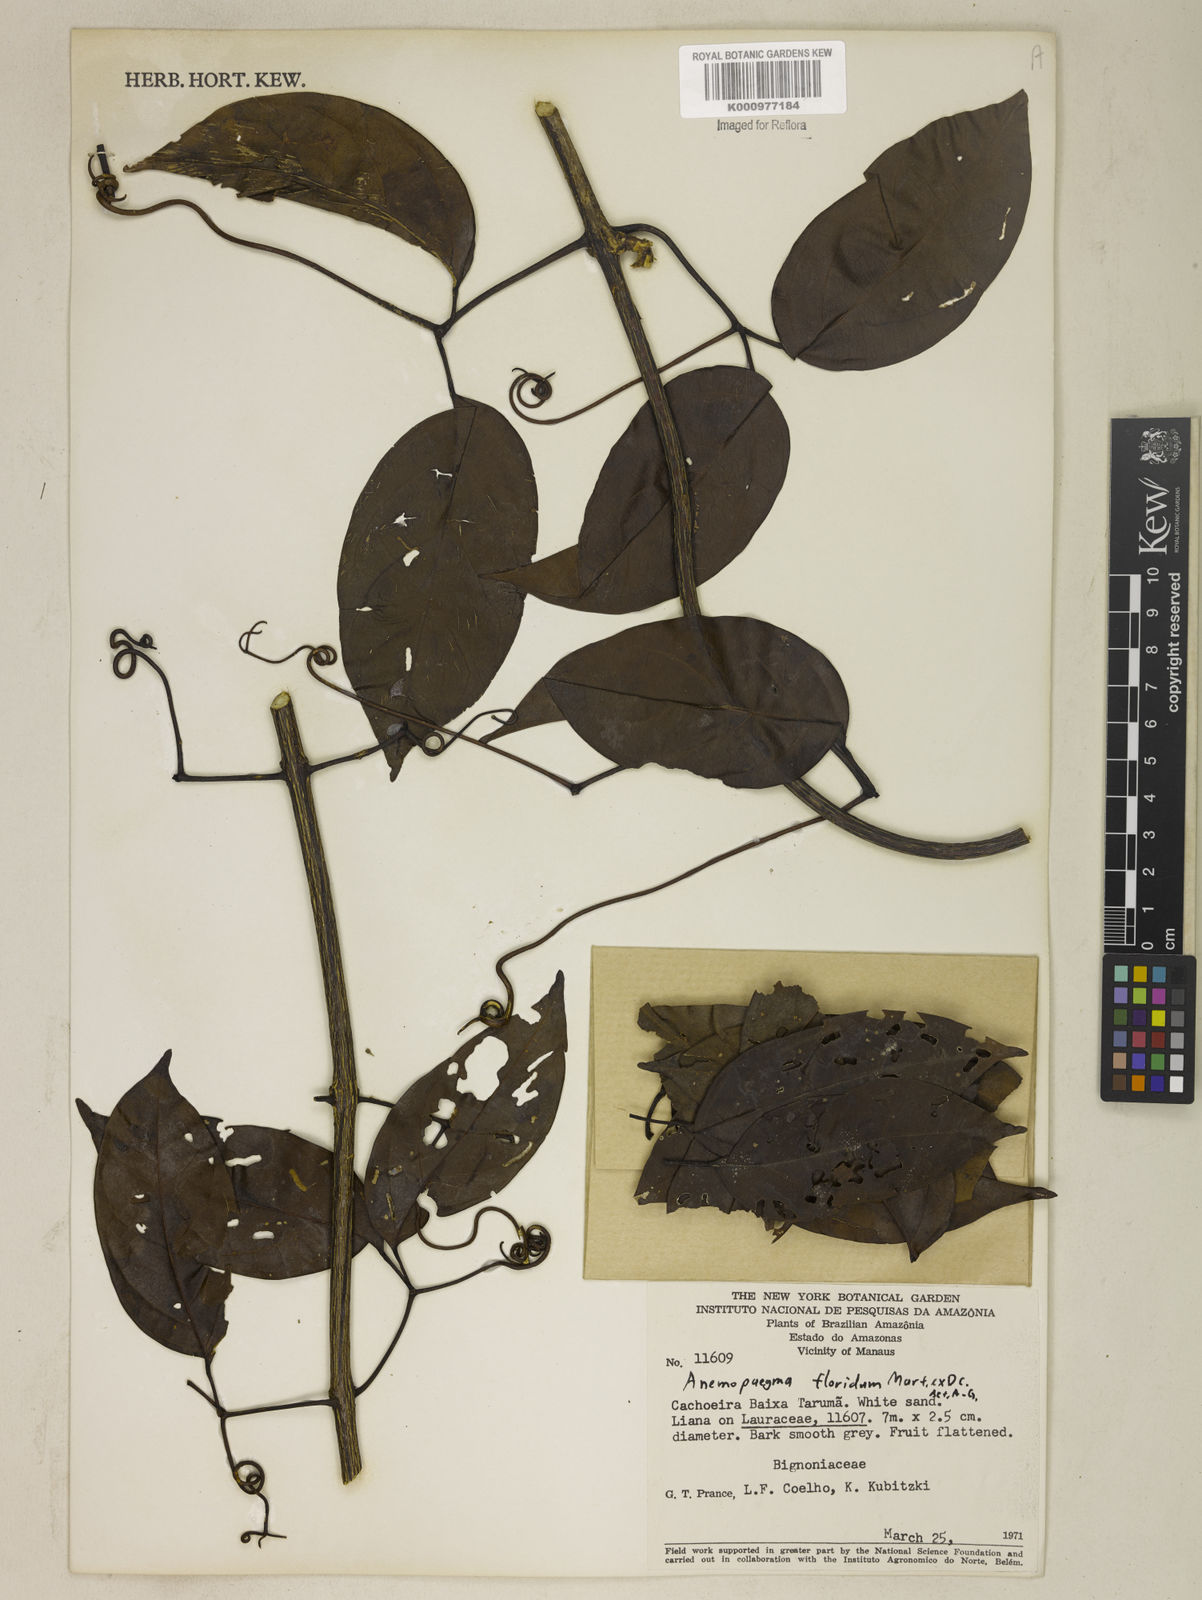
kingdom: Plantae
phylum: Tracheophyta
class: Magnoliopsida
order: Lamiales
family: Bignoniaceae
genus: Anemopaegma
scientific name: Anemopaegma floridum
